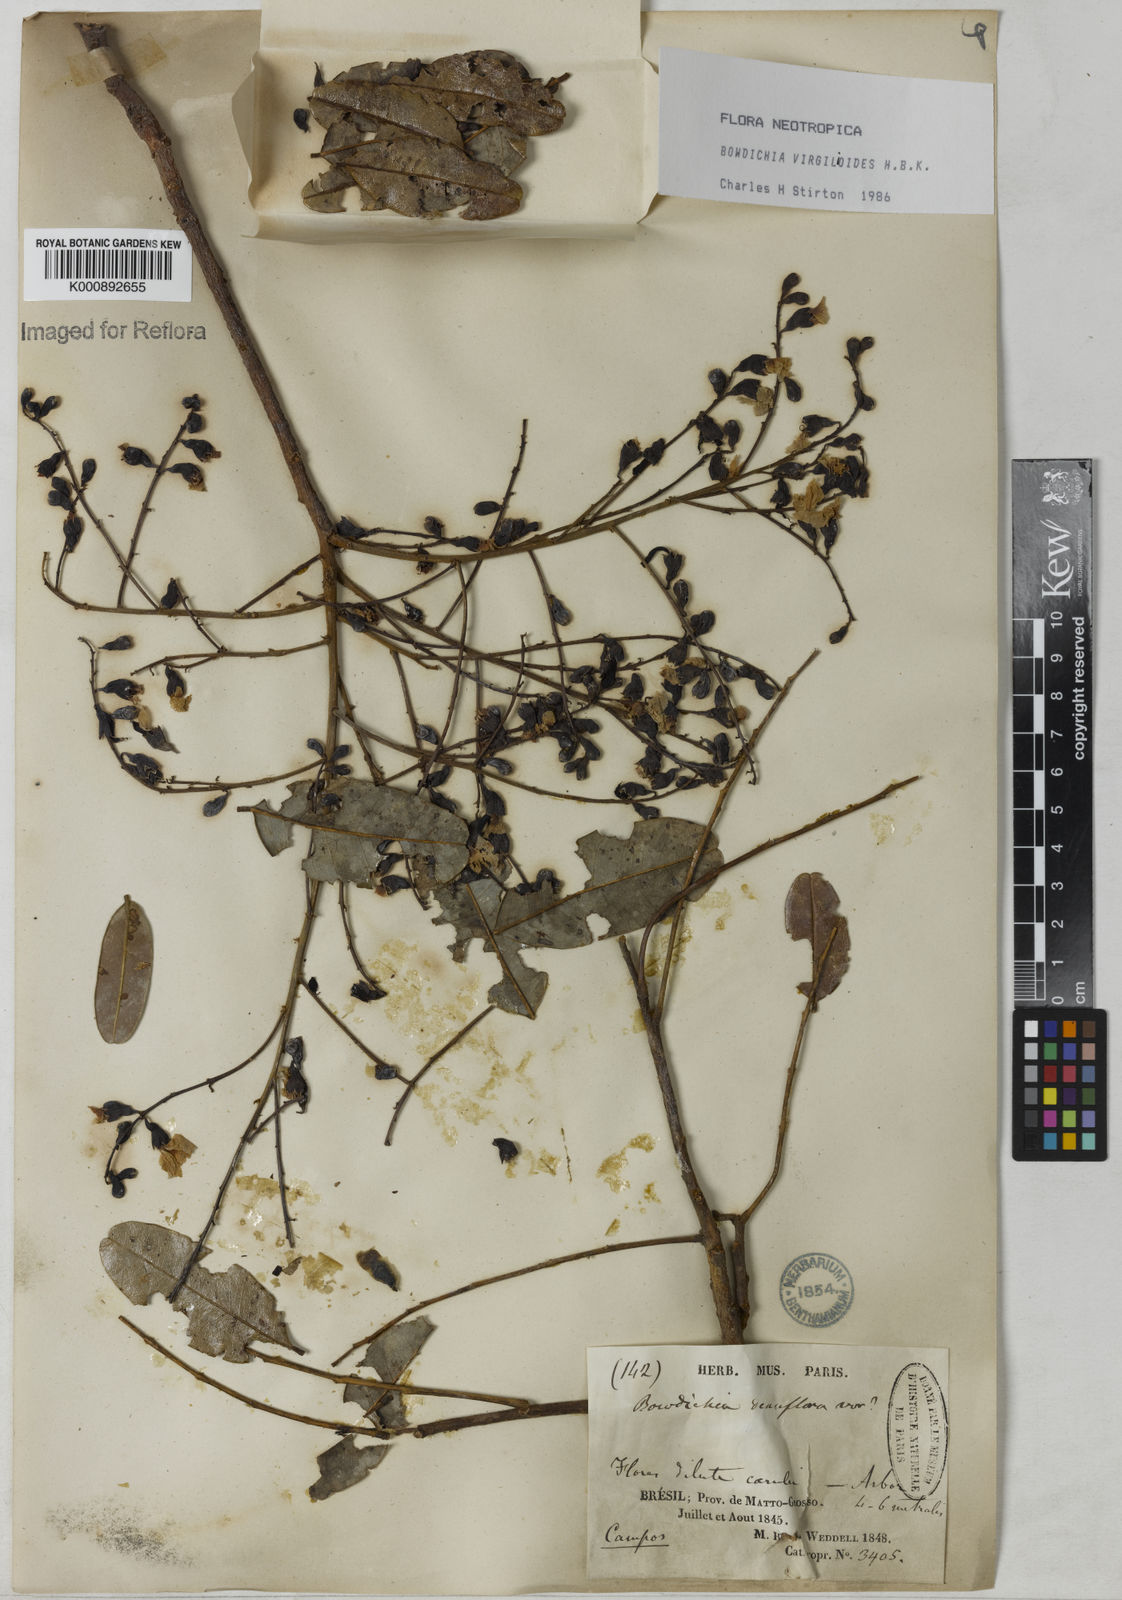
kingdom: Plantae
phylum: Tracheophyta
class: Magnoliopsida
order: Fabales
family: Fabaceae
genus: Bowdichia
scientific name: Bowdichia virgilioides
